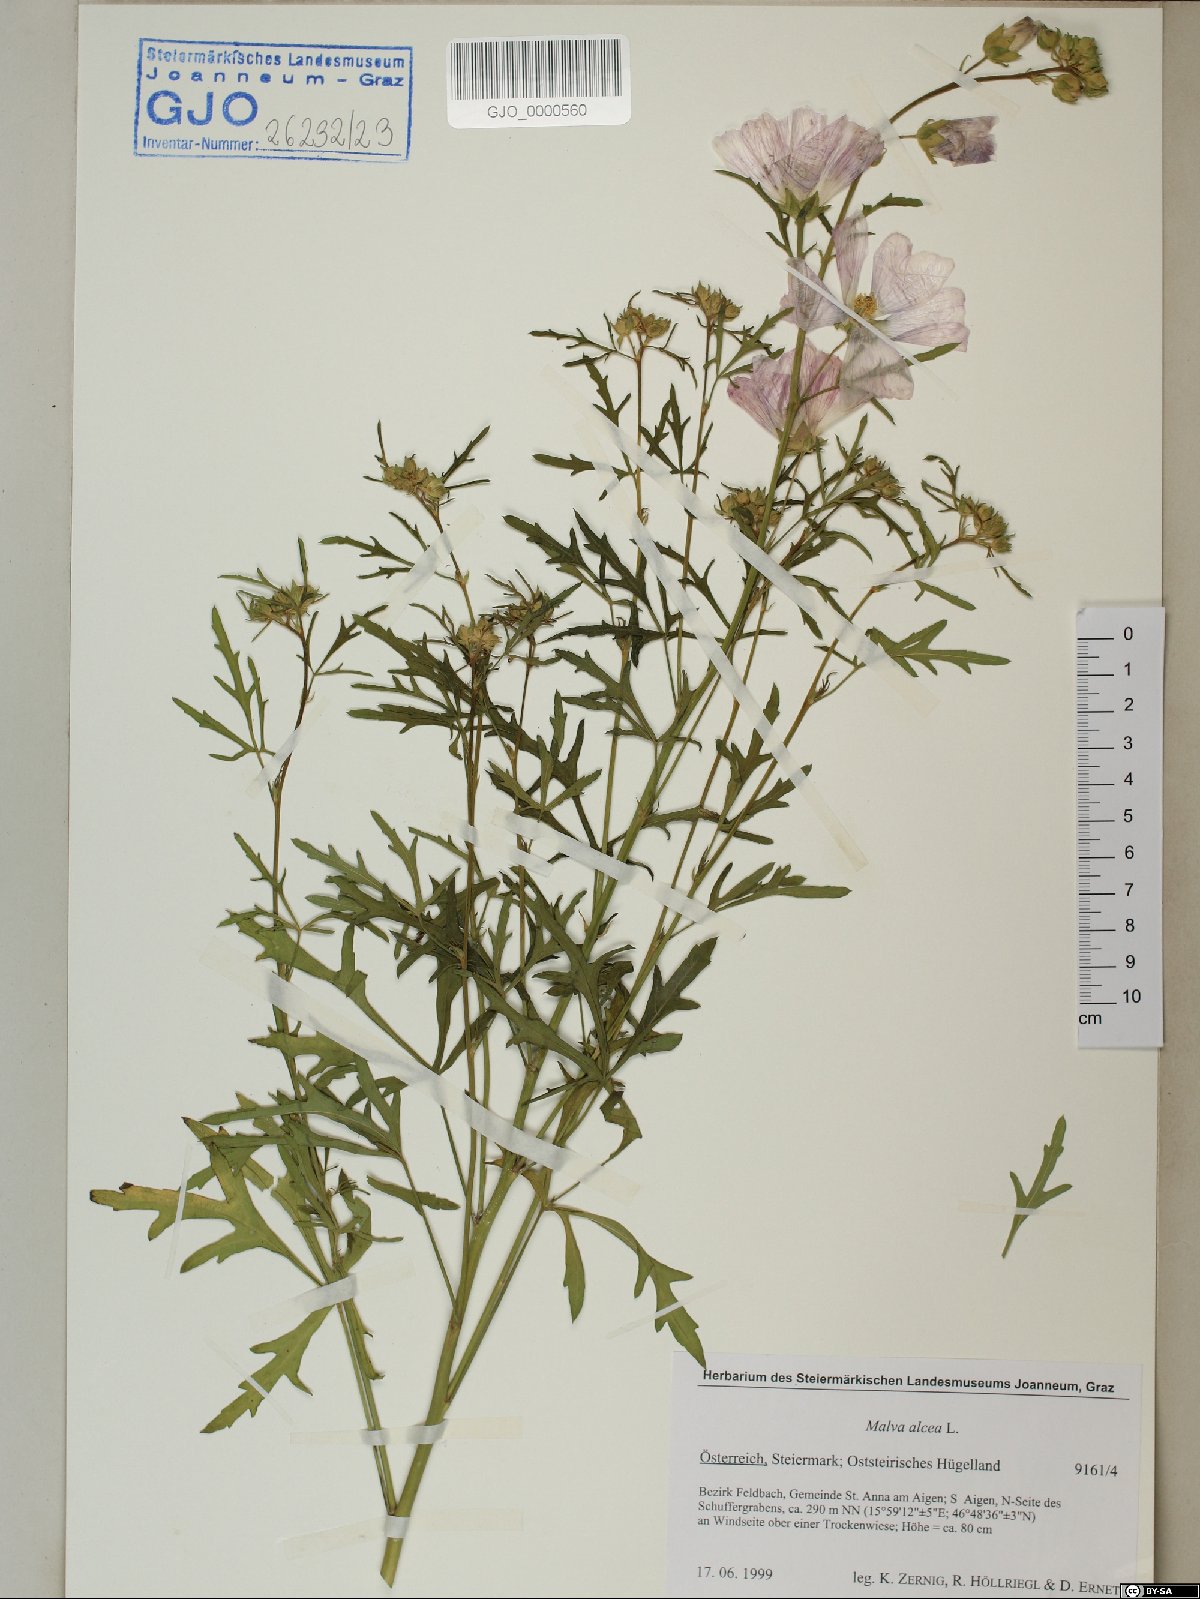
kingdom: Plantae
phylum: Tracheophyta
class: Magnoliopsida
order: Malvales
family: Malvaceae
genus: Malva
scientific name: Malva alcea
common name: Greater musk-mallow
